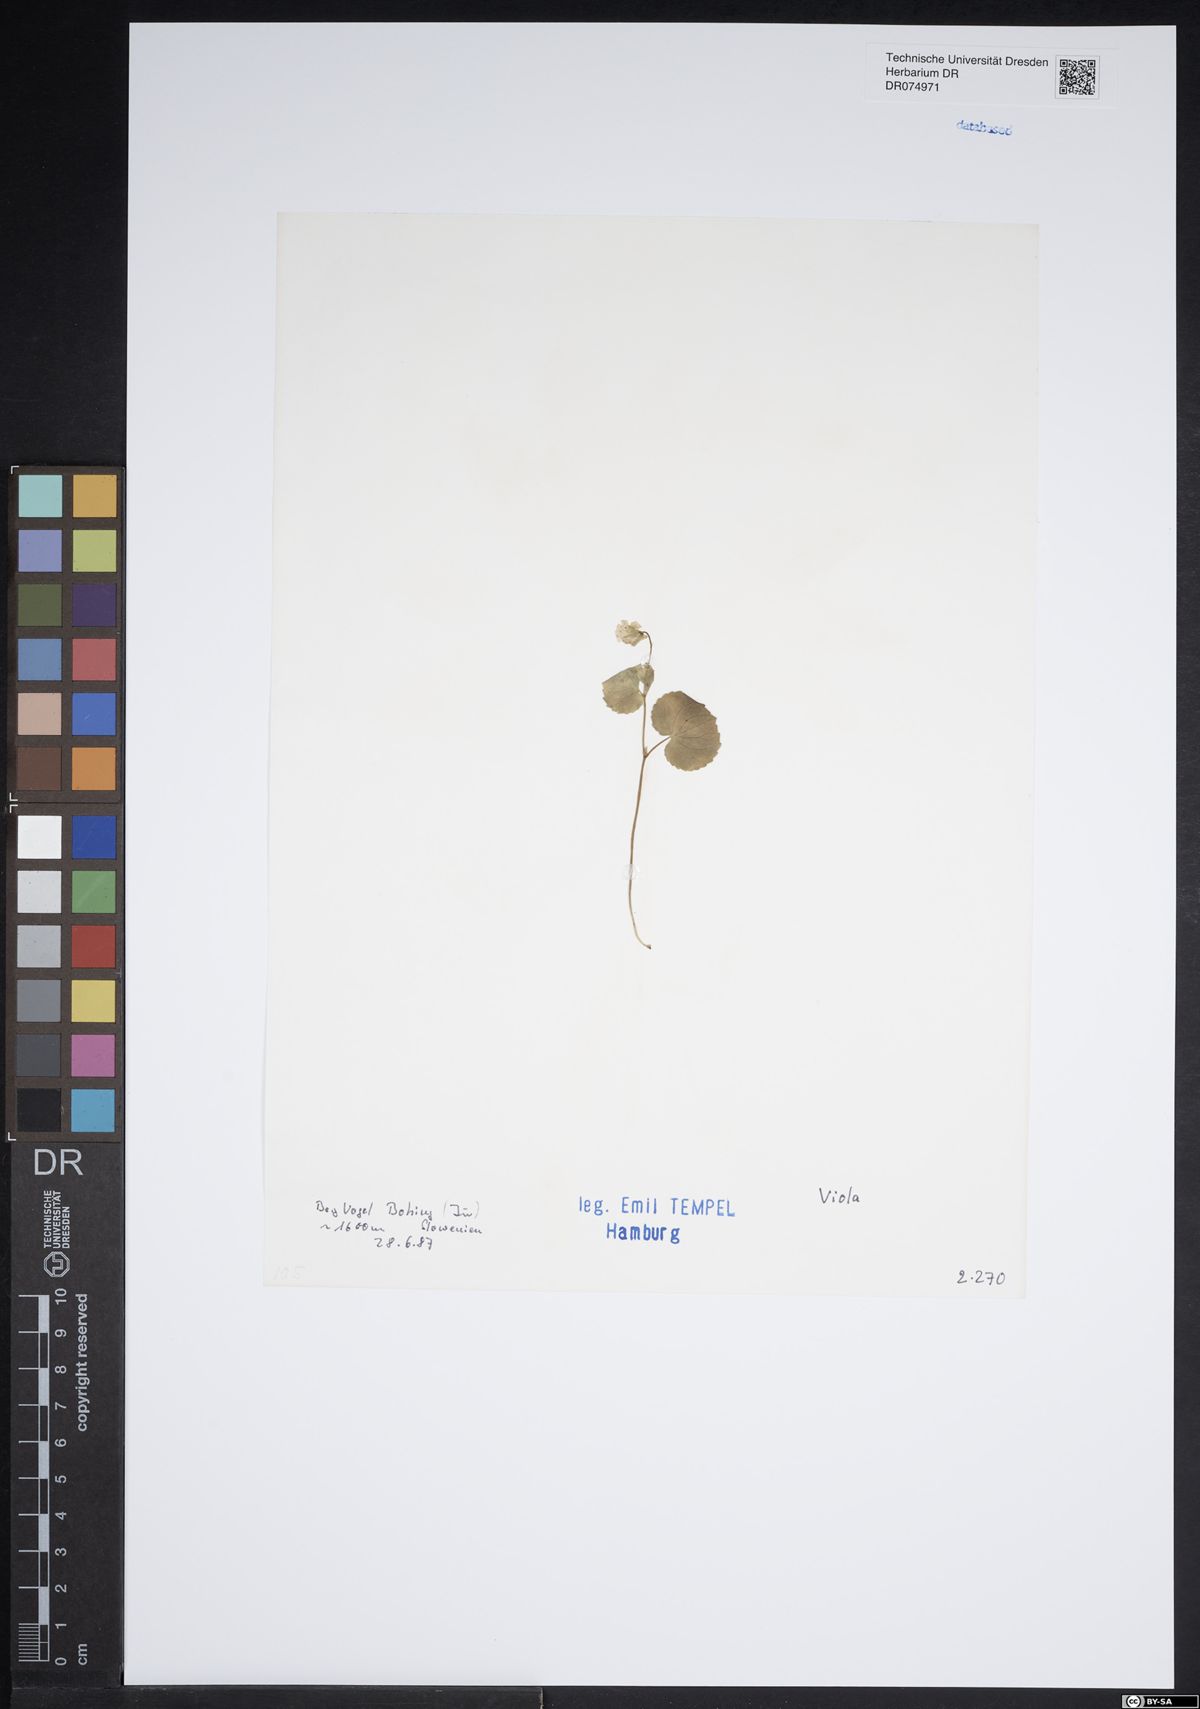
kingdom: Plantae
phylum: Tracheophyta
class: Magnoliopsida
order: Malpighiales
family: Violaceae
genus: Viola
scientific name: Viola
